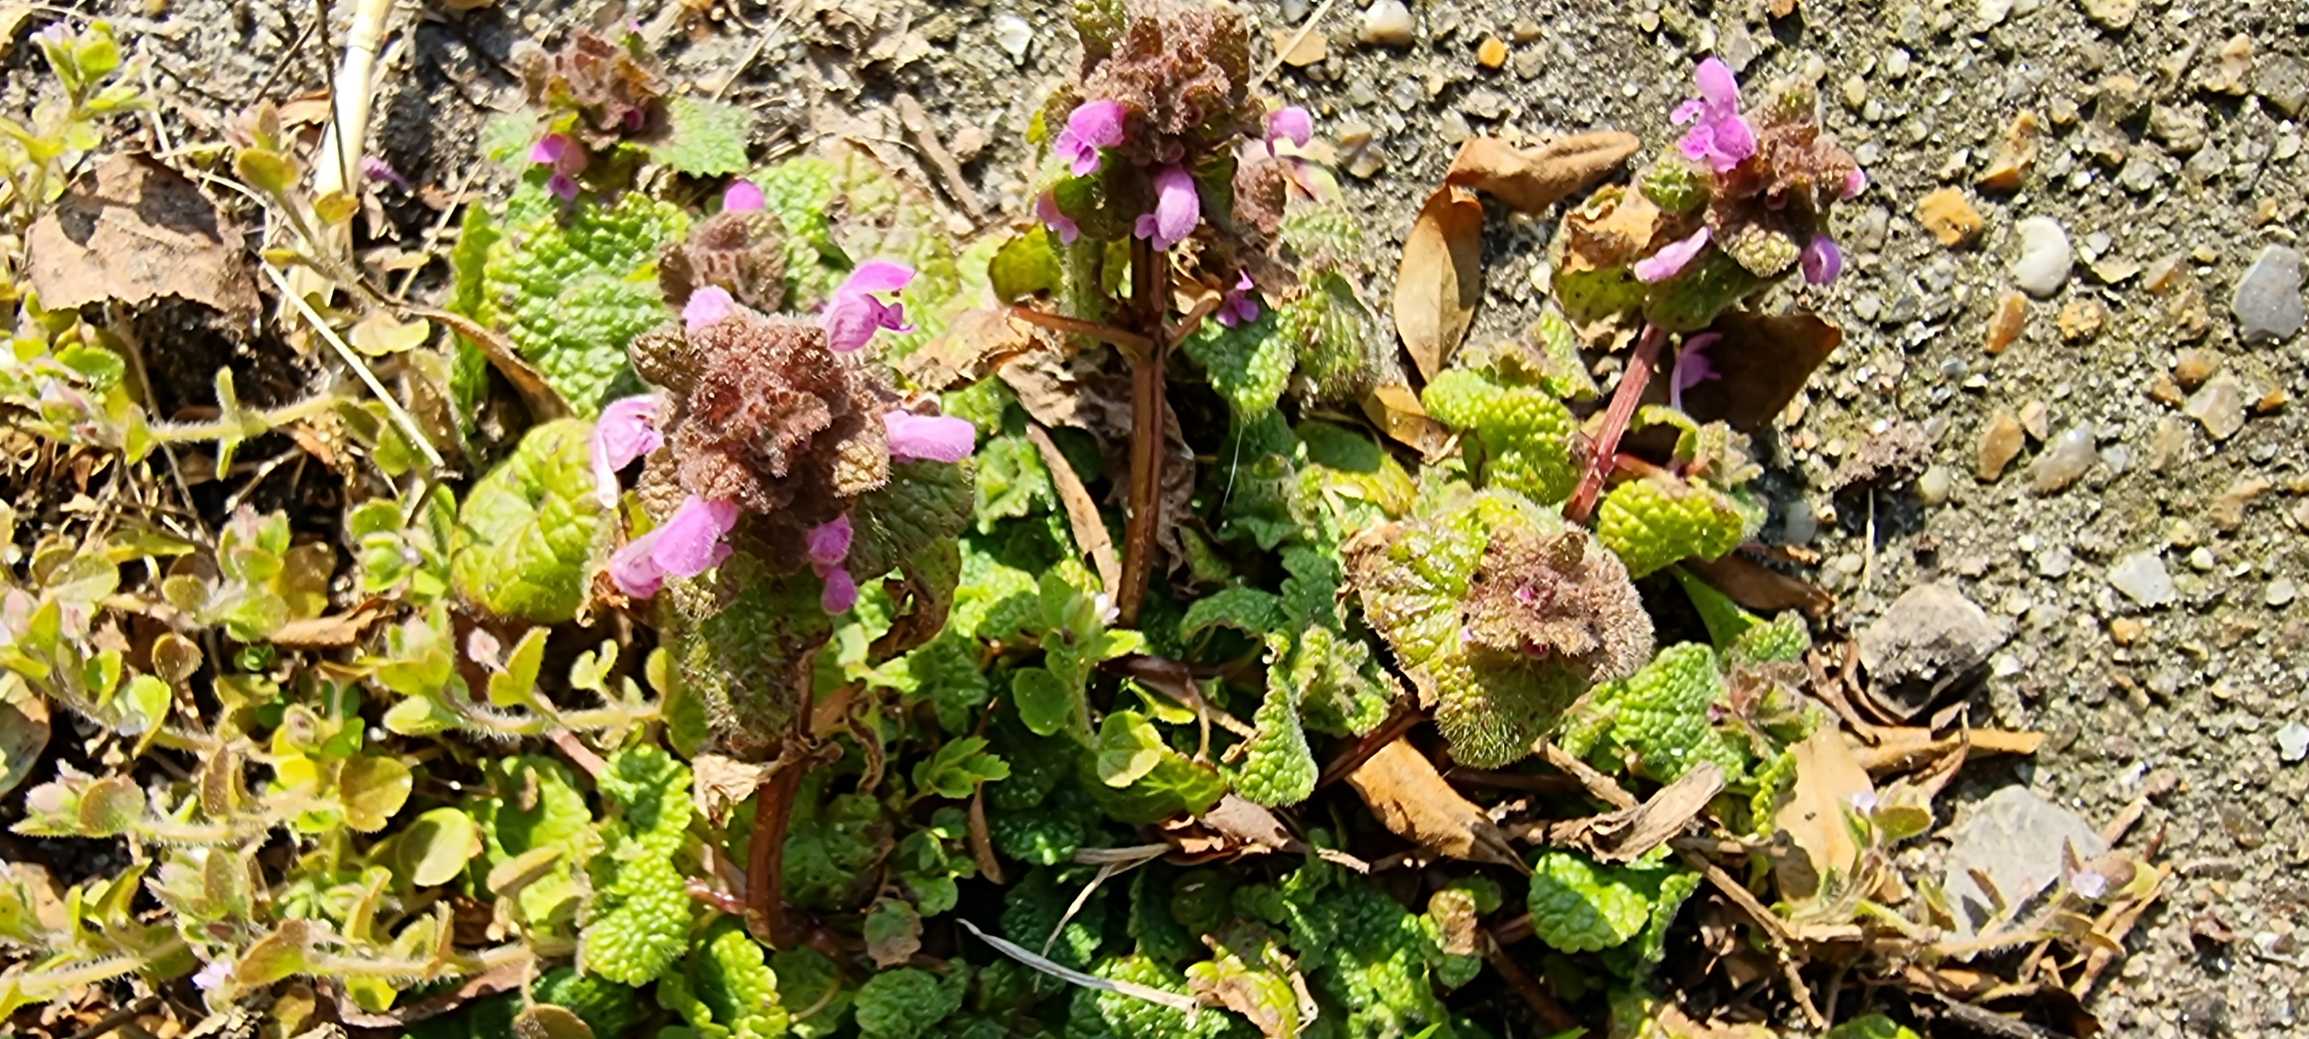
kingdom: Plantae
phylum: Tracheophyta
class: Magnoliopsida
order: Lamiales
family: Lamiaceae
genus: Lamium
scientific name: Lamium purpureum
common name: Rød tvetand
